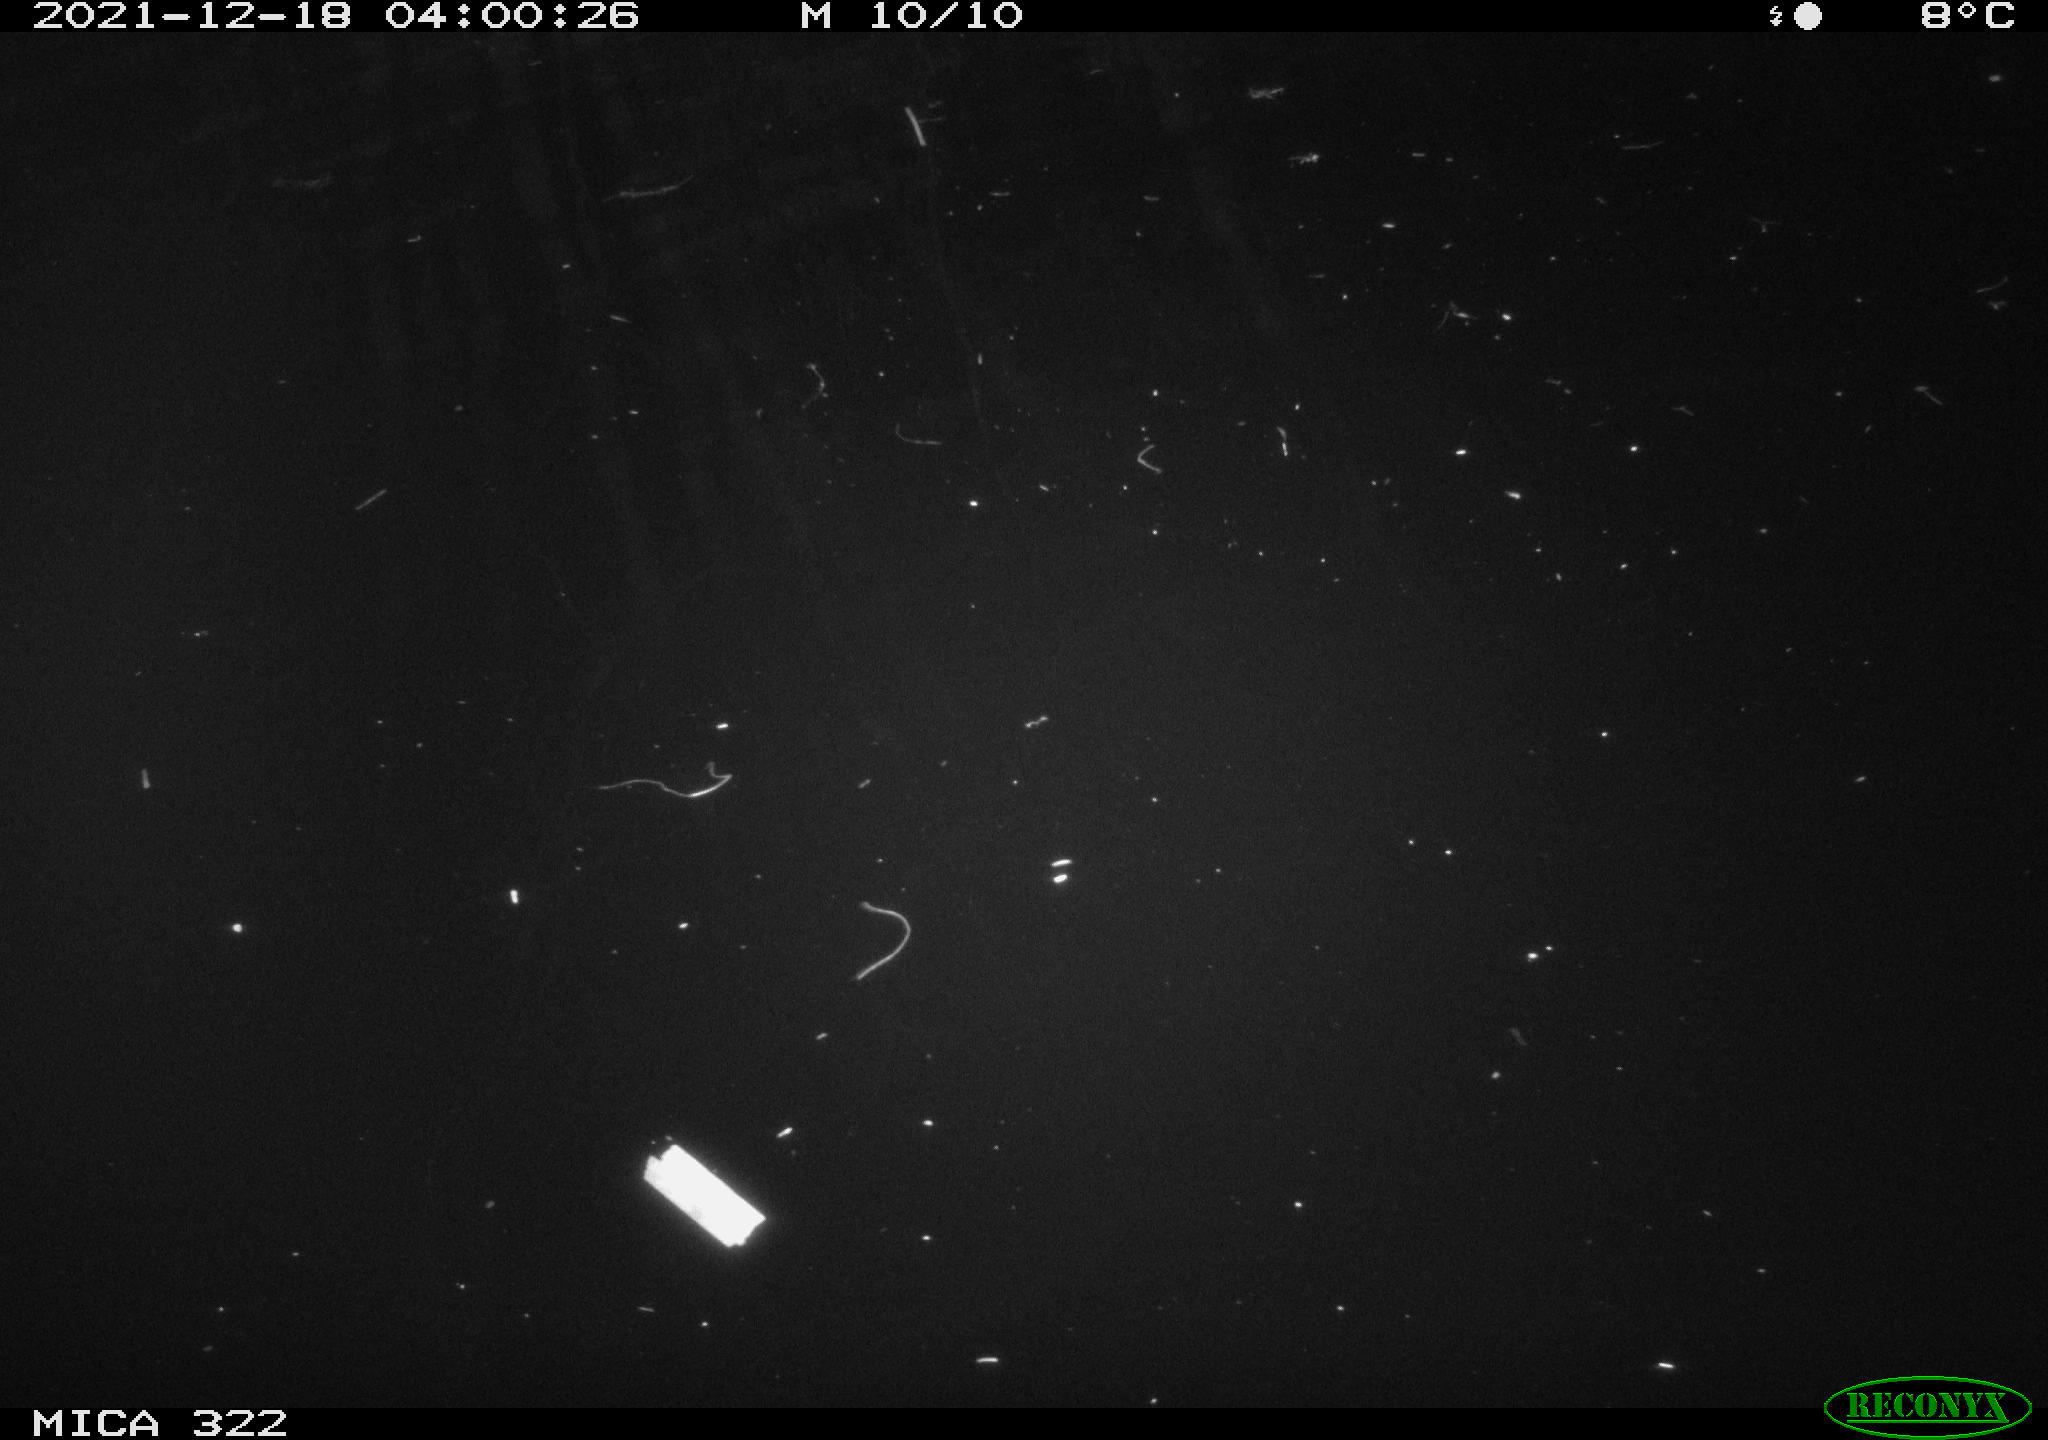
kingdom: Animalia
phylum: Chordata
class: Aves
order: Anseriformes
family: Anatidae
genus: Anas
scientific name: Anas
